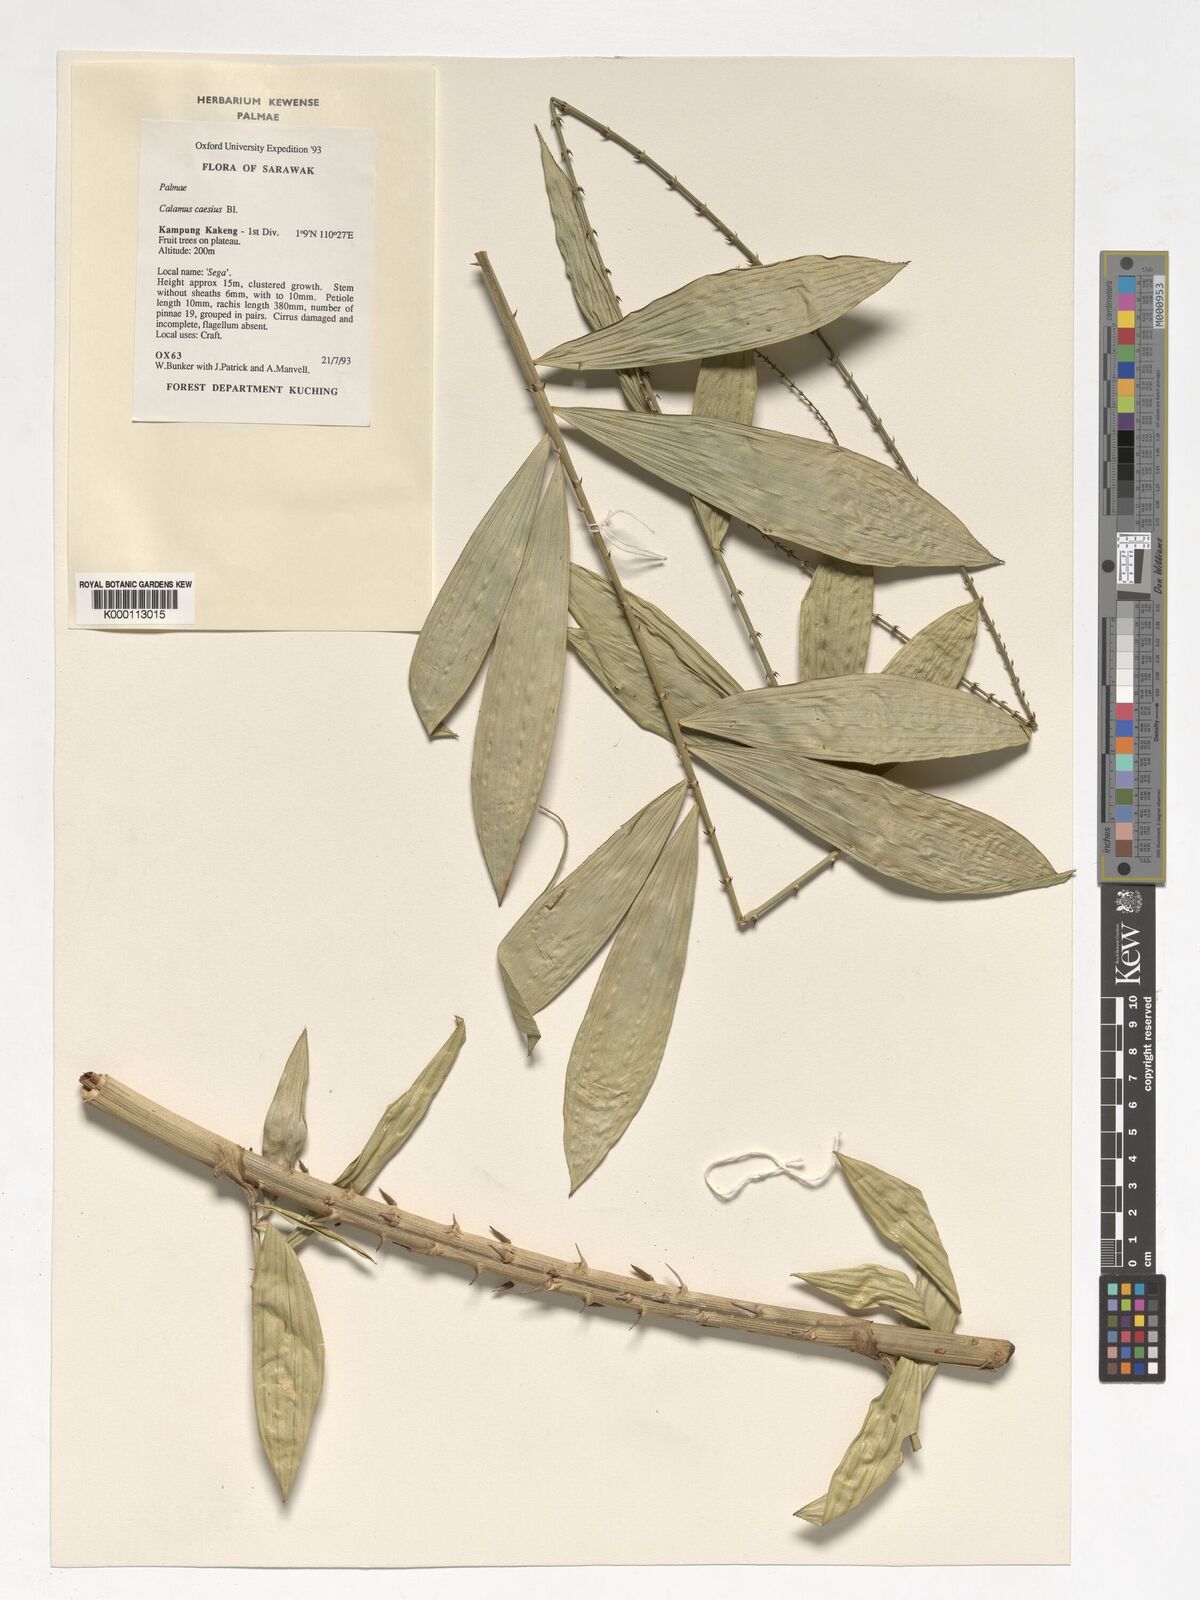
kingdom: Plantae
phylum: Tracheophyta
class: Liliopsida
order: Arecales
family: Arecaceae
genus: Calamus
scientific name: Calamus caesius
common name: Rattan palm
